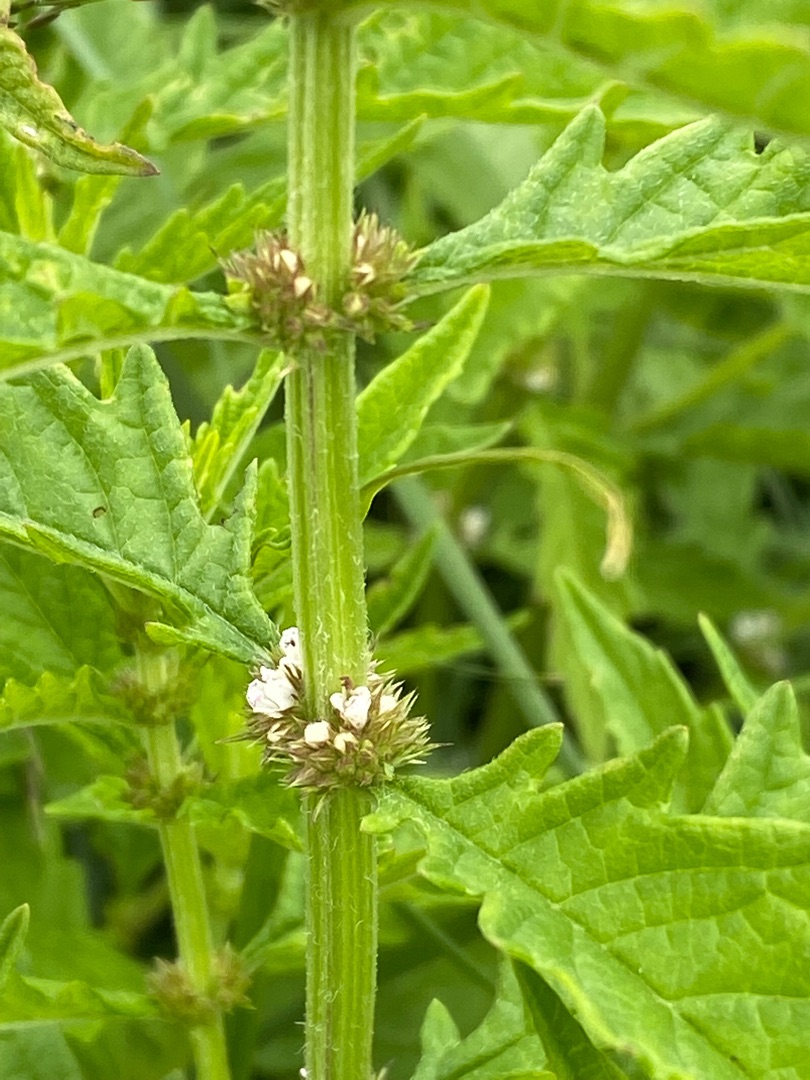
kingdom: Plantae
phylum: Tracheophyta
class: Magnoliopsida
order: Lamiales
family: Lamiaceae
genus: Lycopus
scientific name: Lycopus europaeus
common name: Sværtevæld
